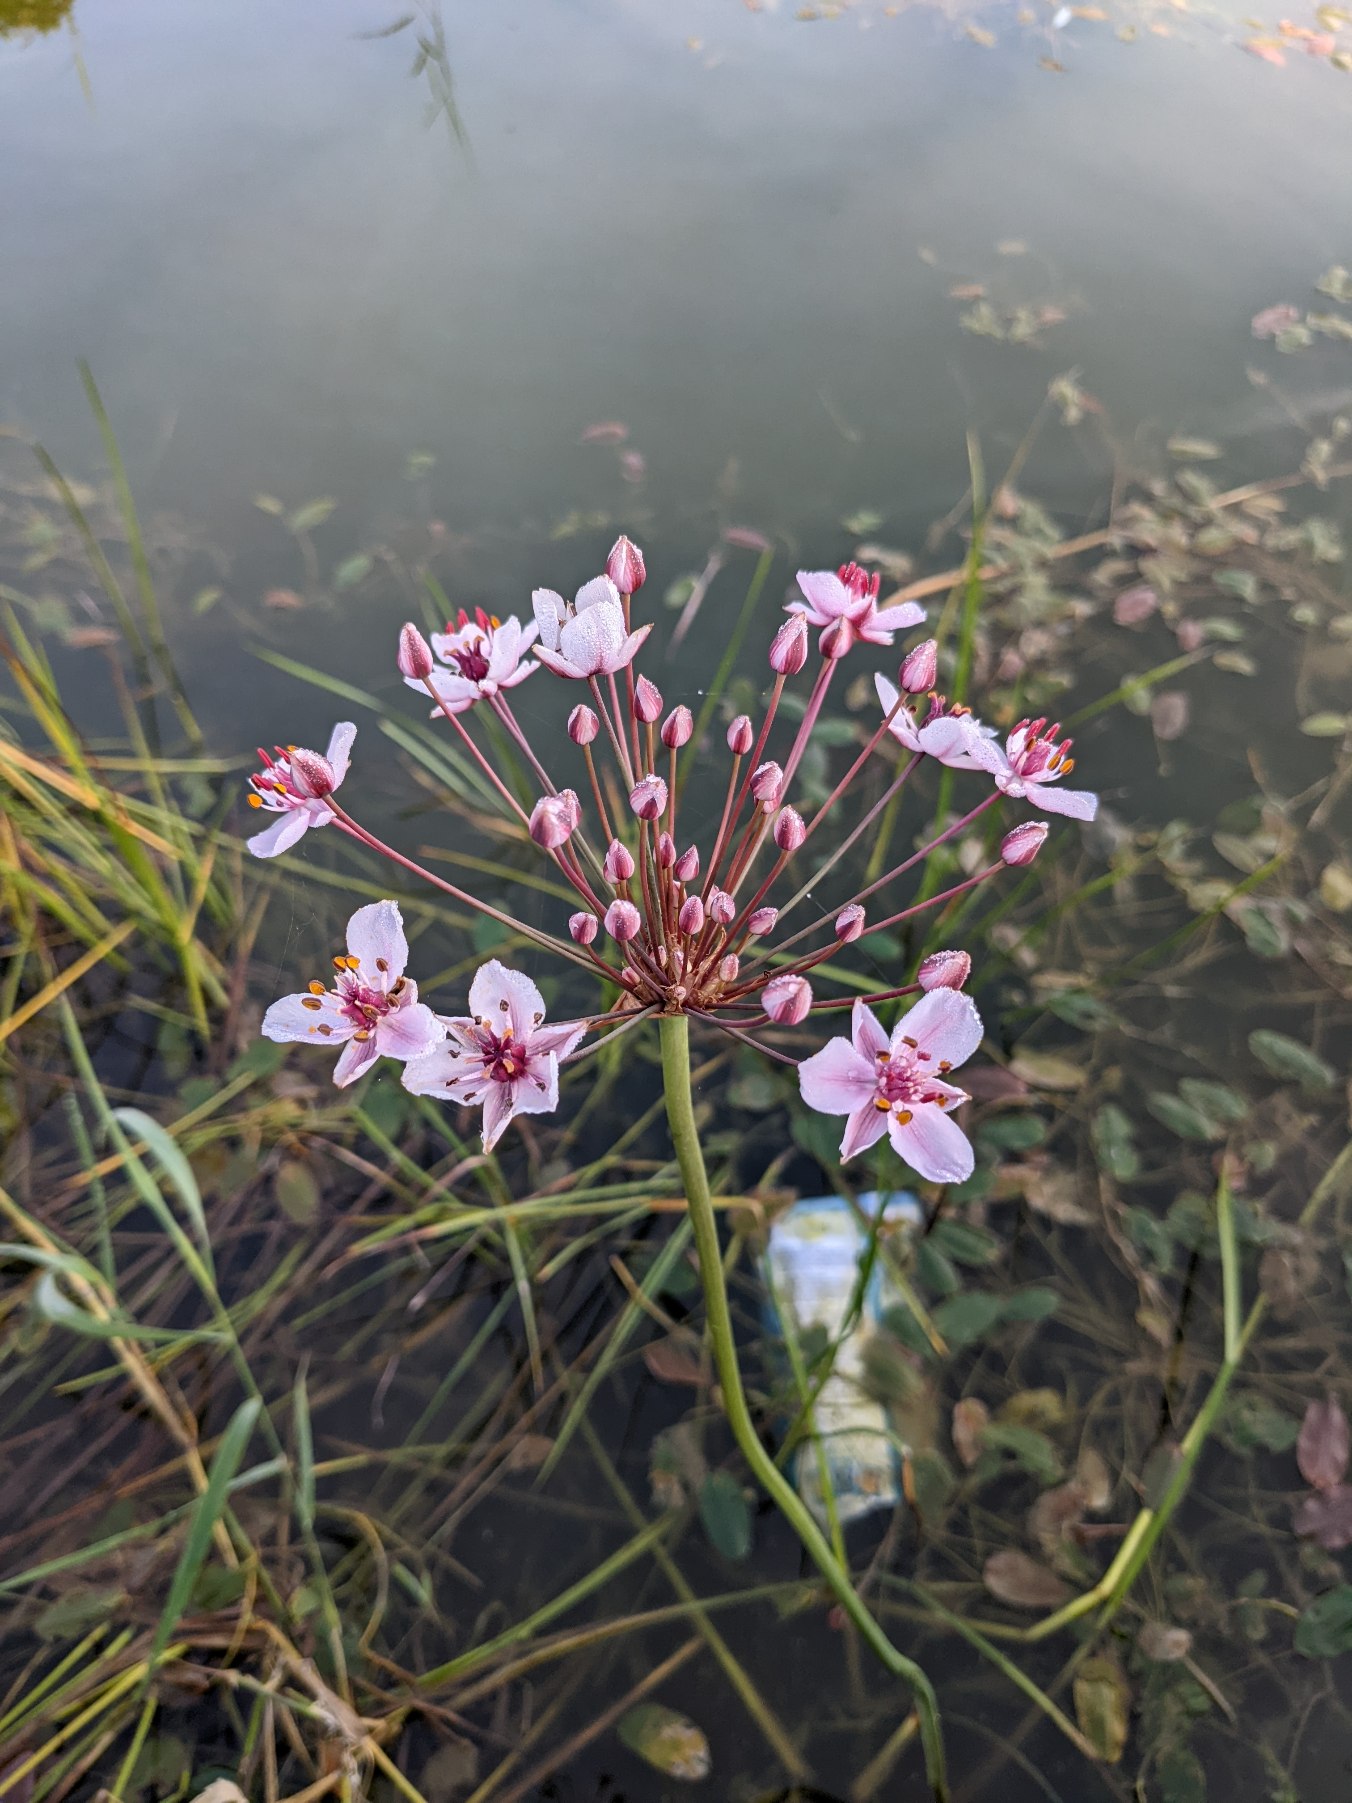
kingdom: Plantae
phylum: Tracheophyta
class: Liliopsida
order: Alismatales
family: Butomaceae
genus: Butomus
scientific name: Butomus umbellatus
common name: Brudelys
